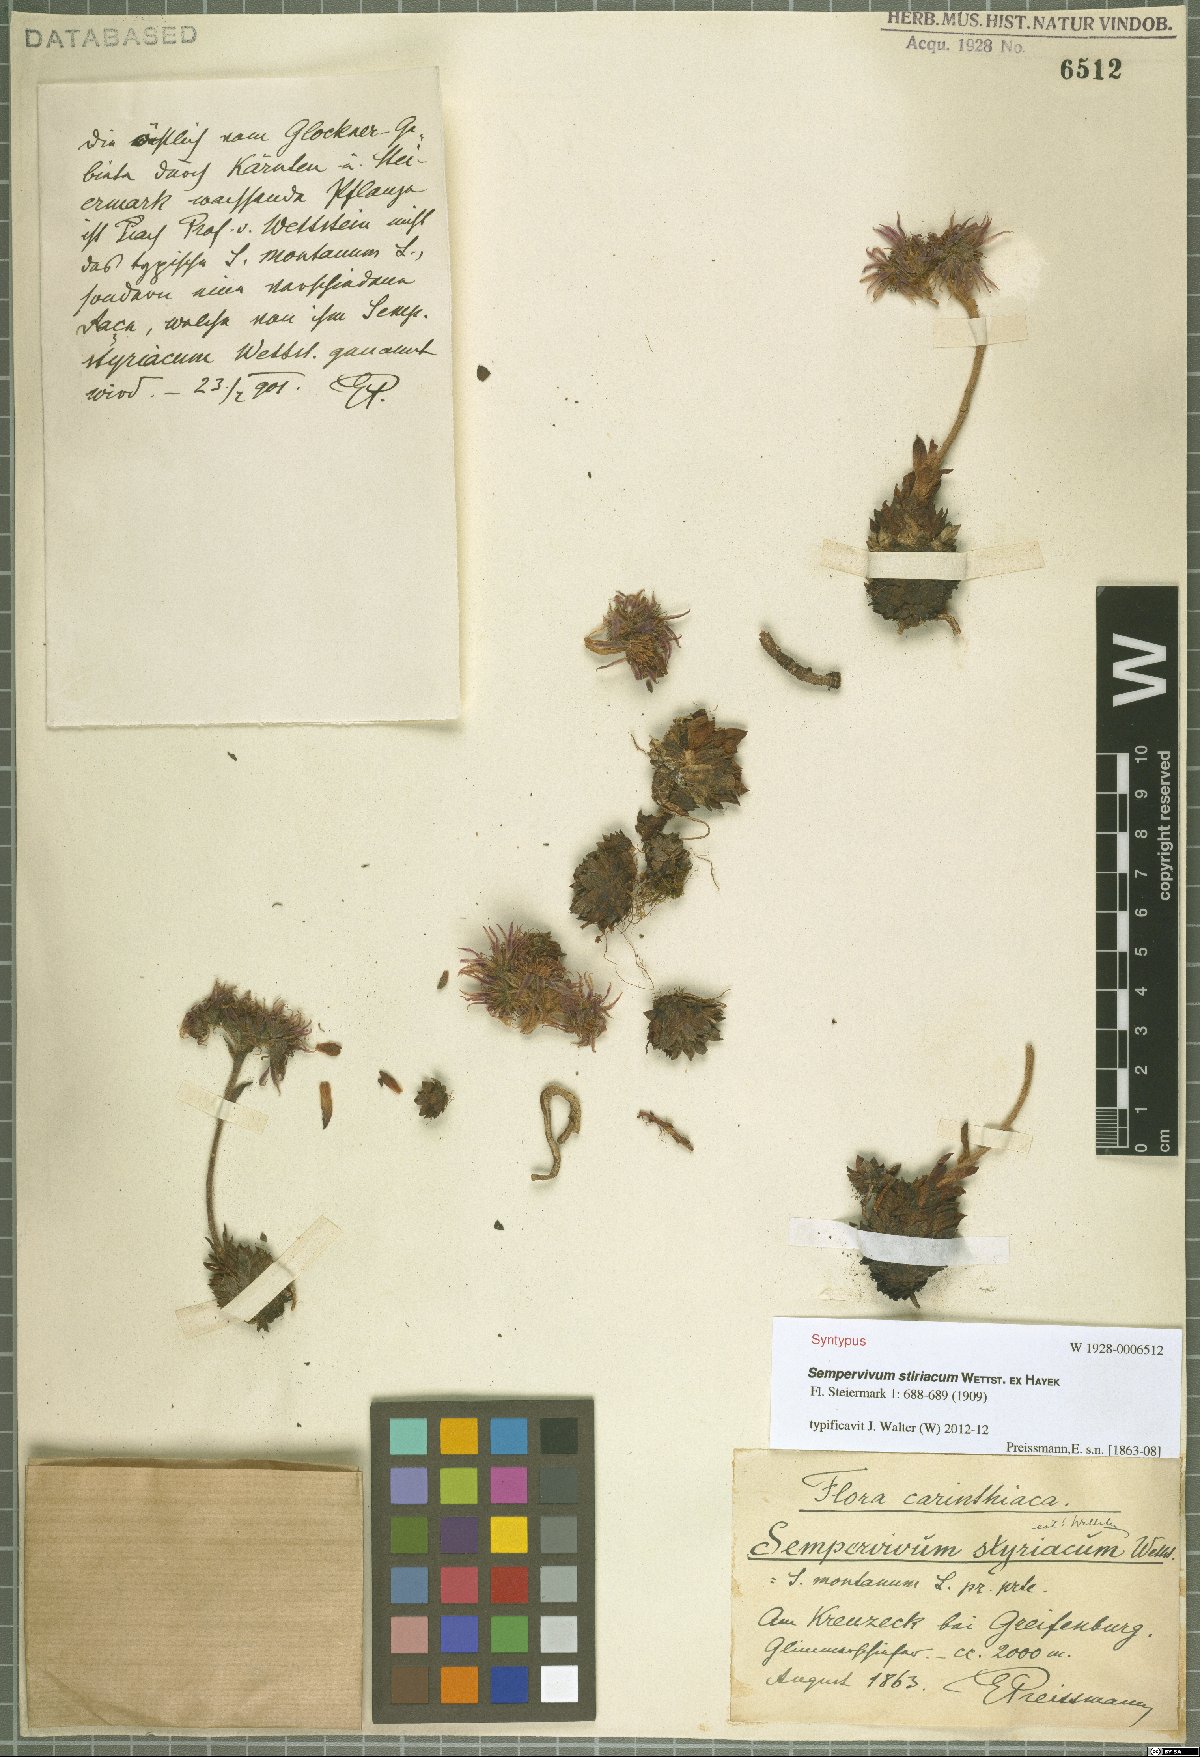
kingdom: Plantae
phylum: Tracheophyta
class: Magnoliopsida
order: Saxifragales
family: Crassulaceae
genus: Sempervivum
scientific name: Sempervivum montanum
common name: Mountain house-leek
